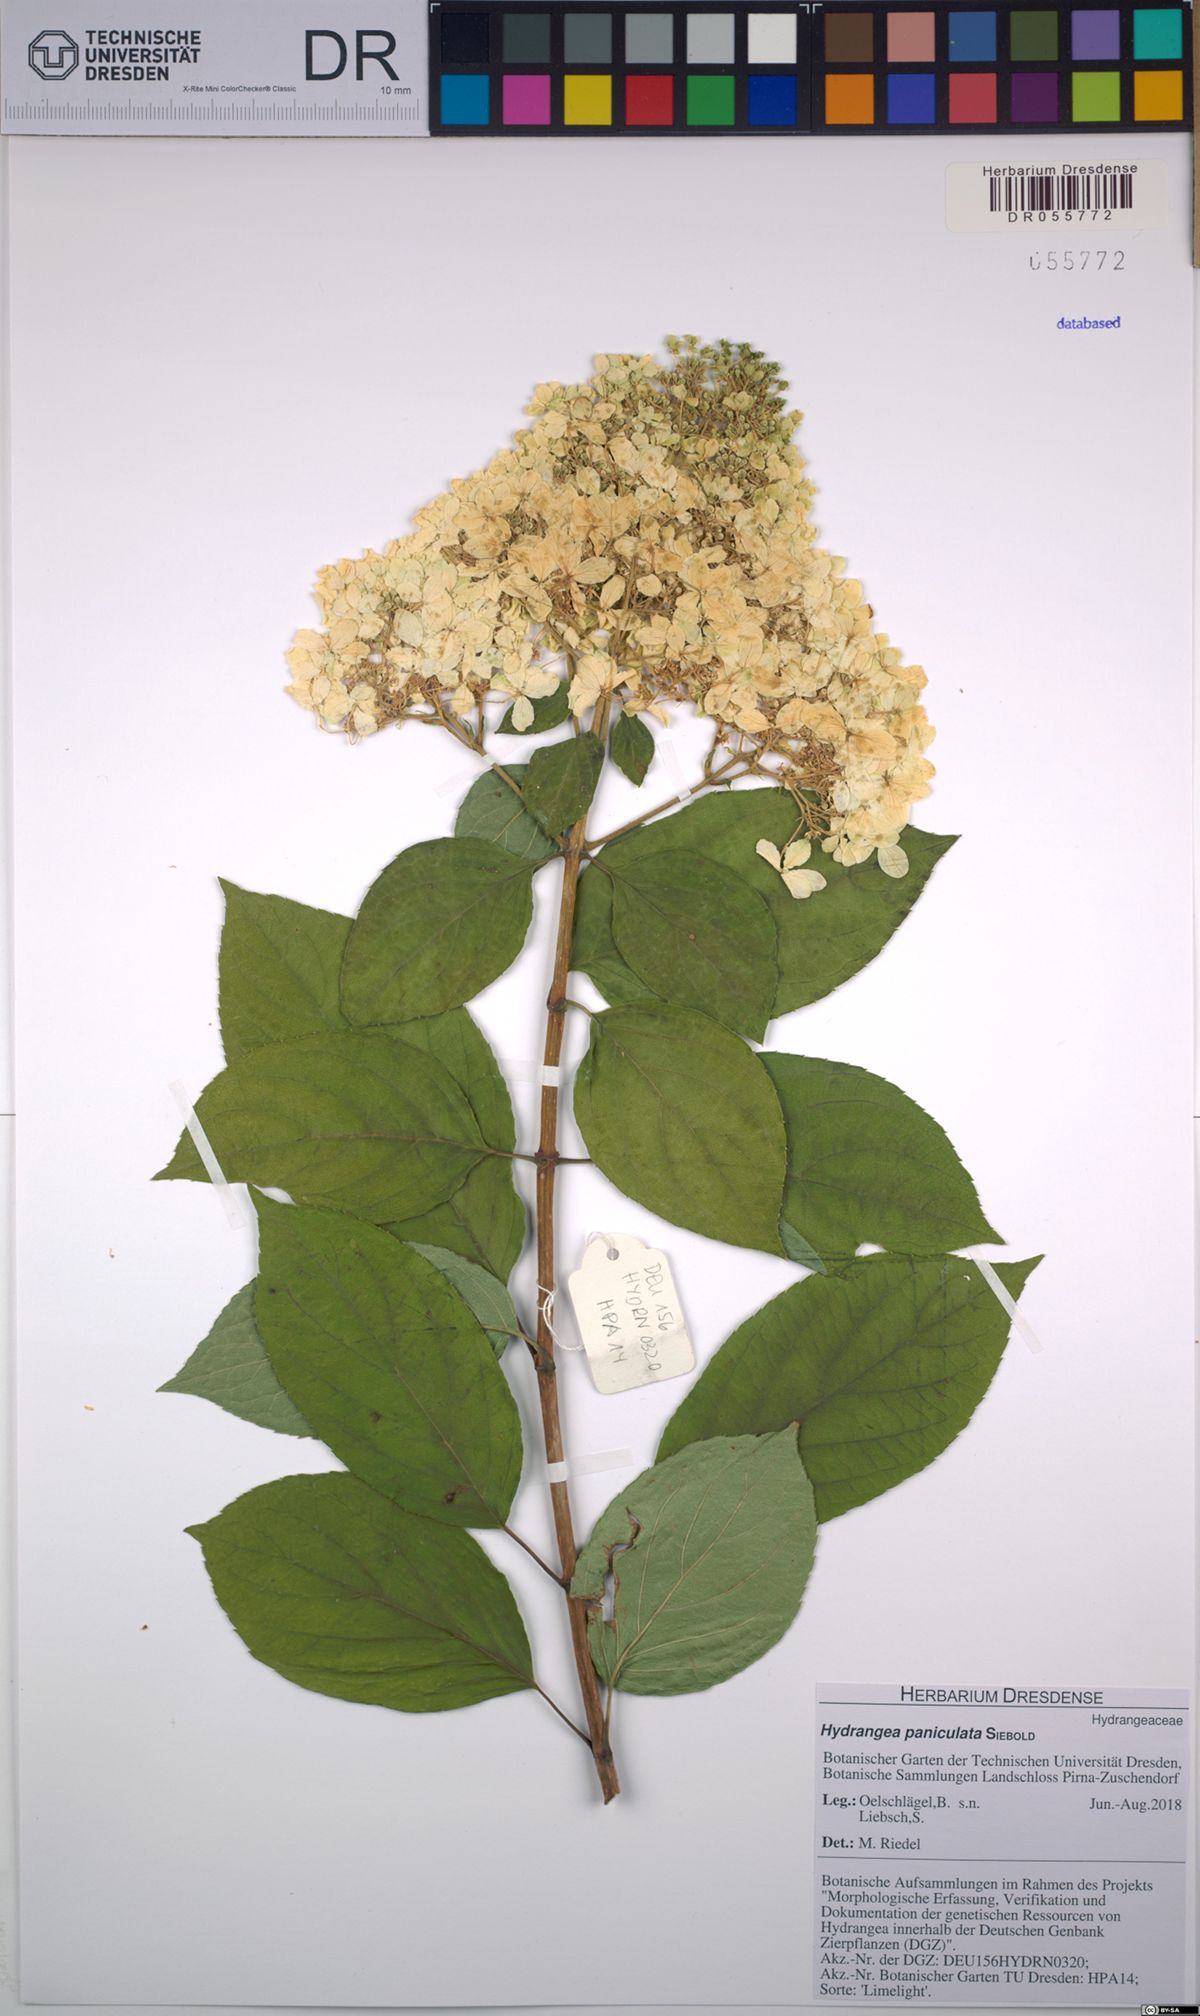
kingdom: Plantae
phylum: Tracheophyta
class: Magnoliopsida
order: Cornales
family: Hydrangeaceae
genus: Hydrangea
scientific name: Hydrangea paniculata
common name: Panicled hydrangea
